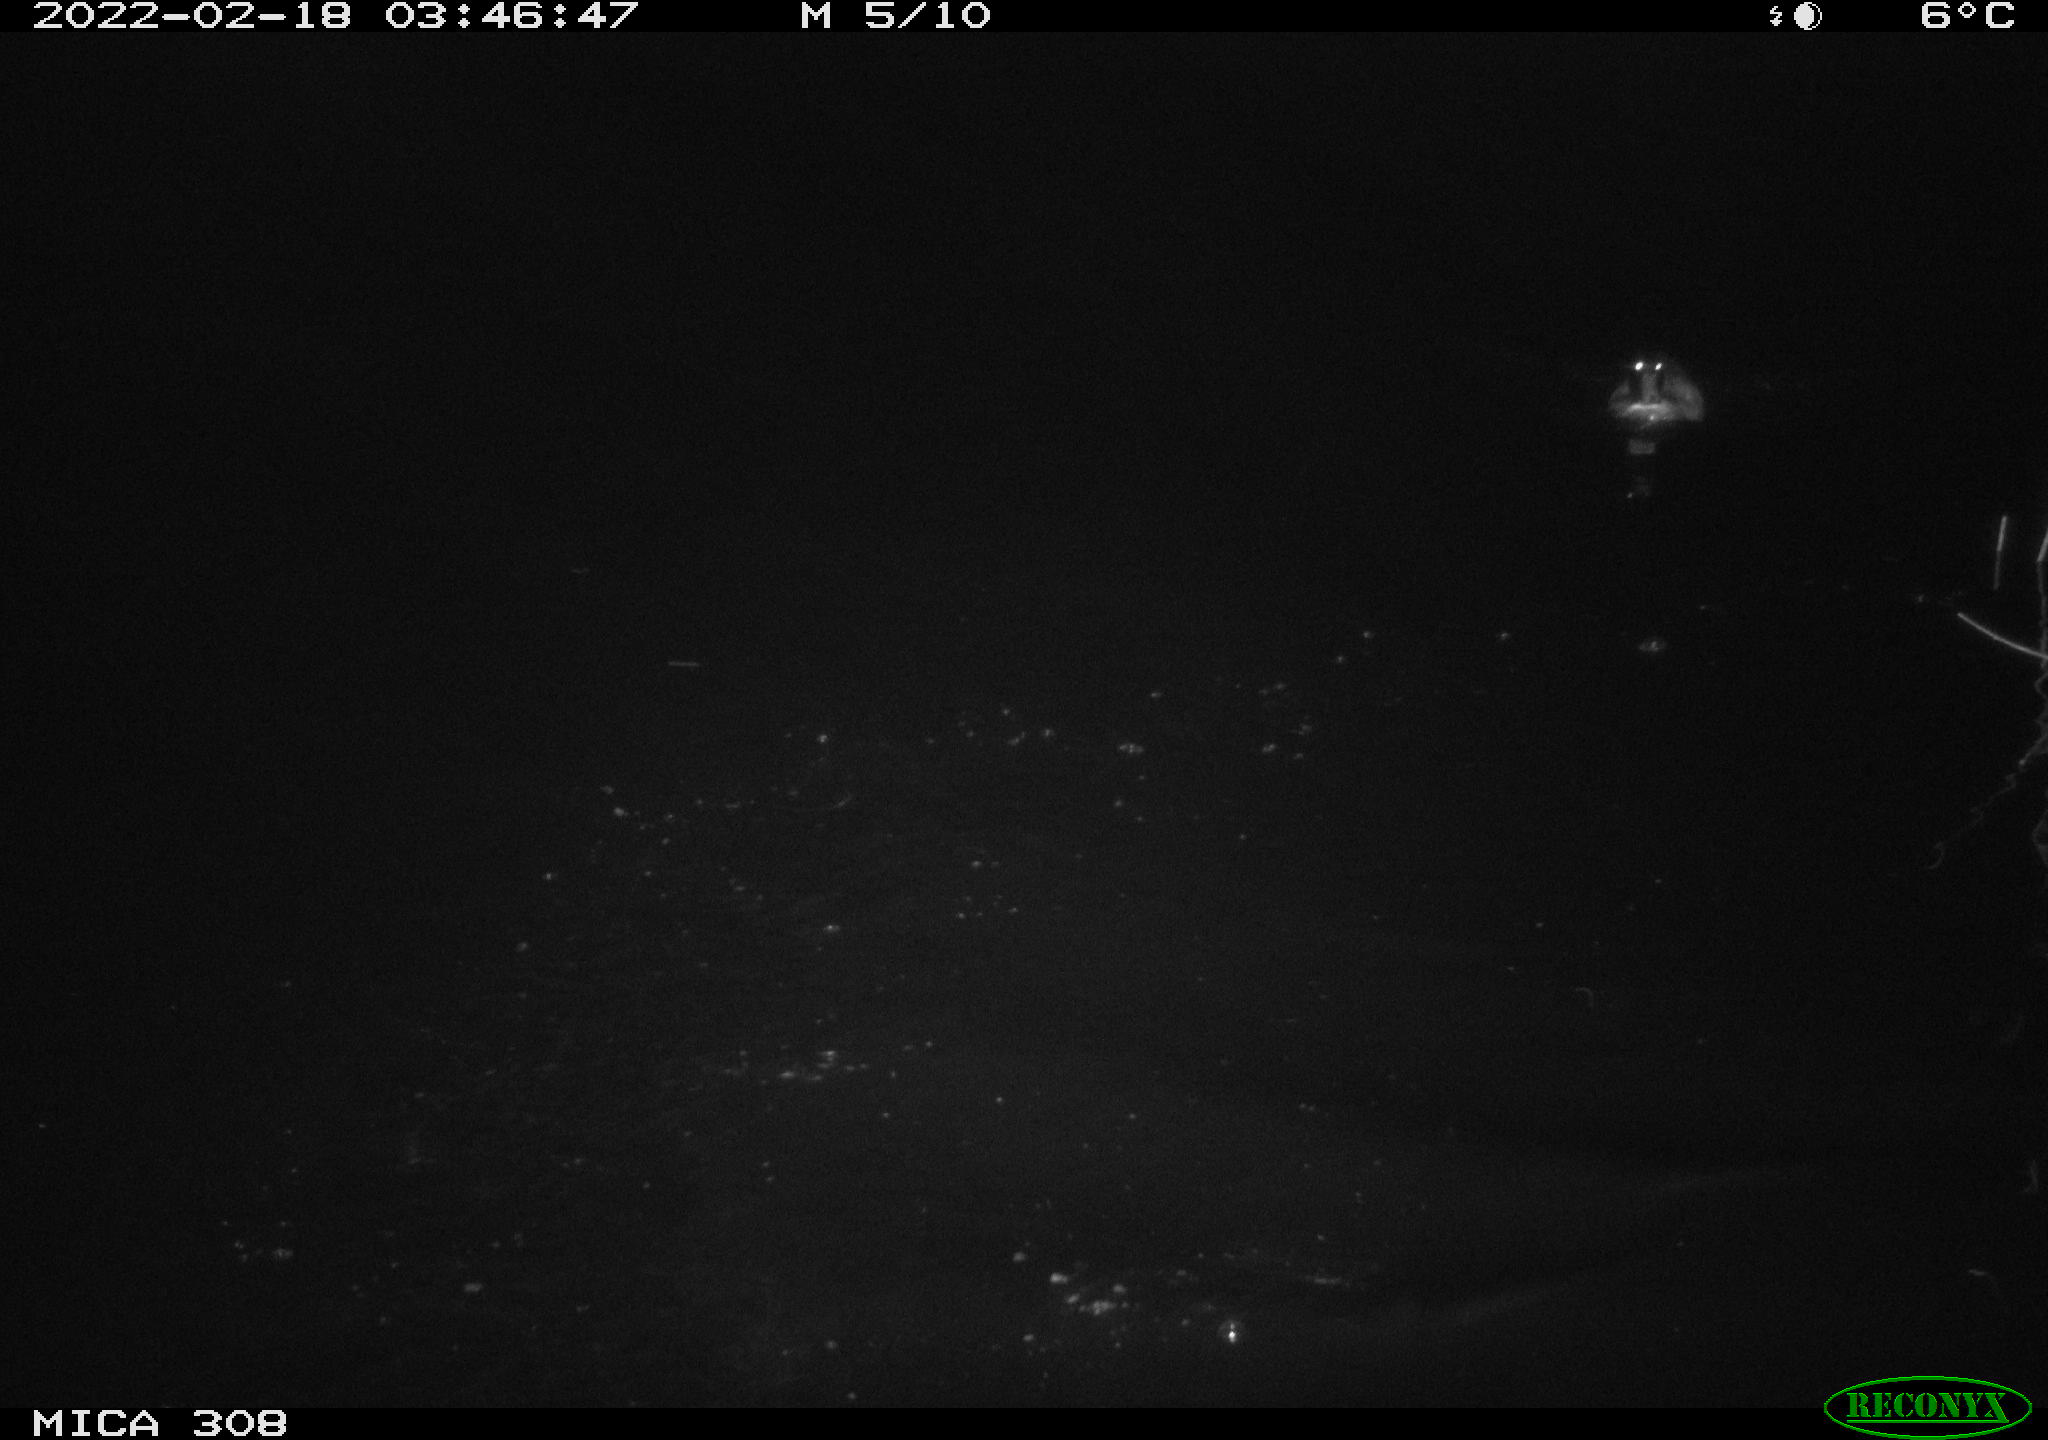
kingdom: Animalia
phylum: Chordata
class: Aves
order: Anseriformes
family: Anatidae
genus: Anas
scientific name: Anas platyrhynchos
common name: Mallard
